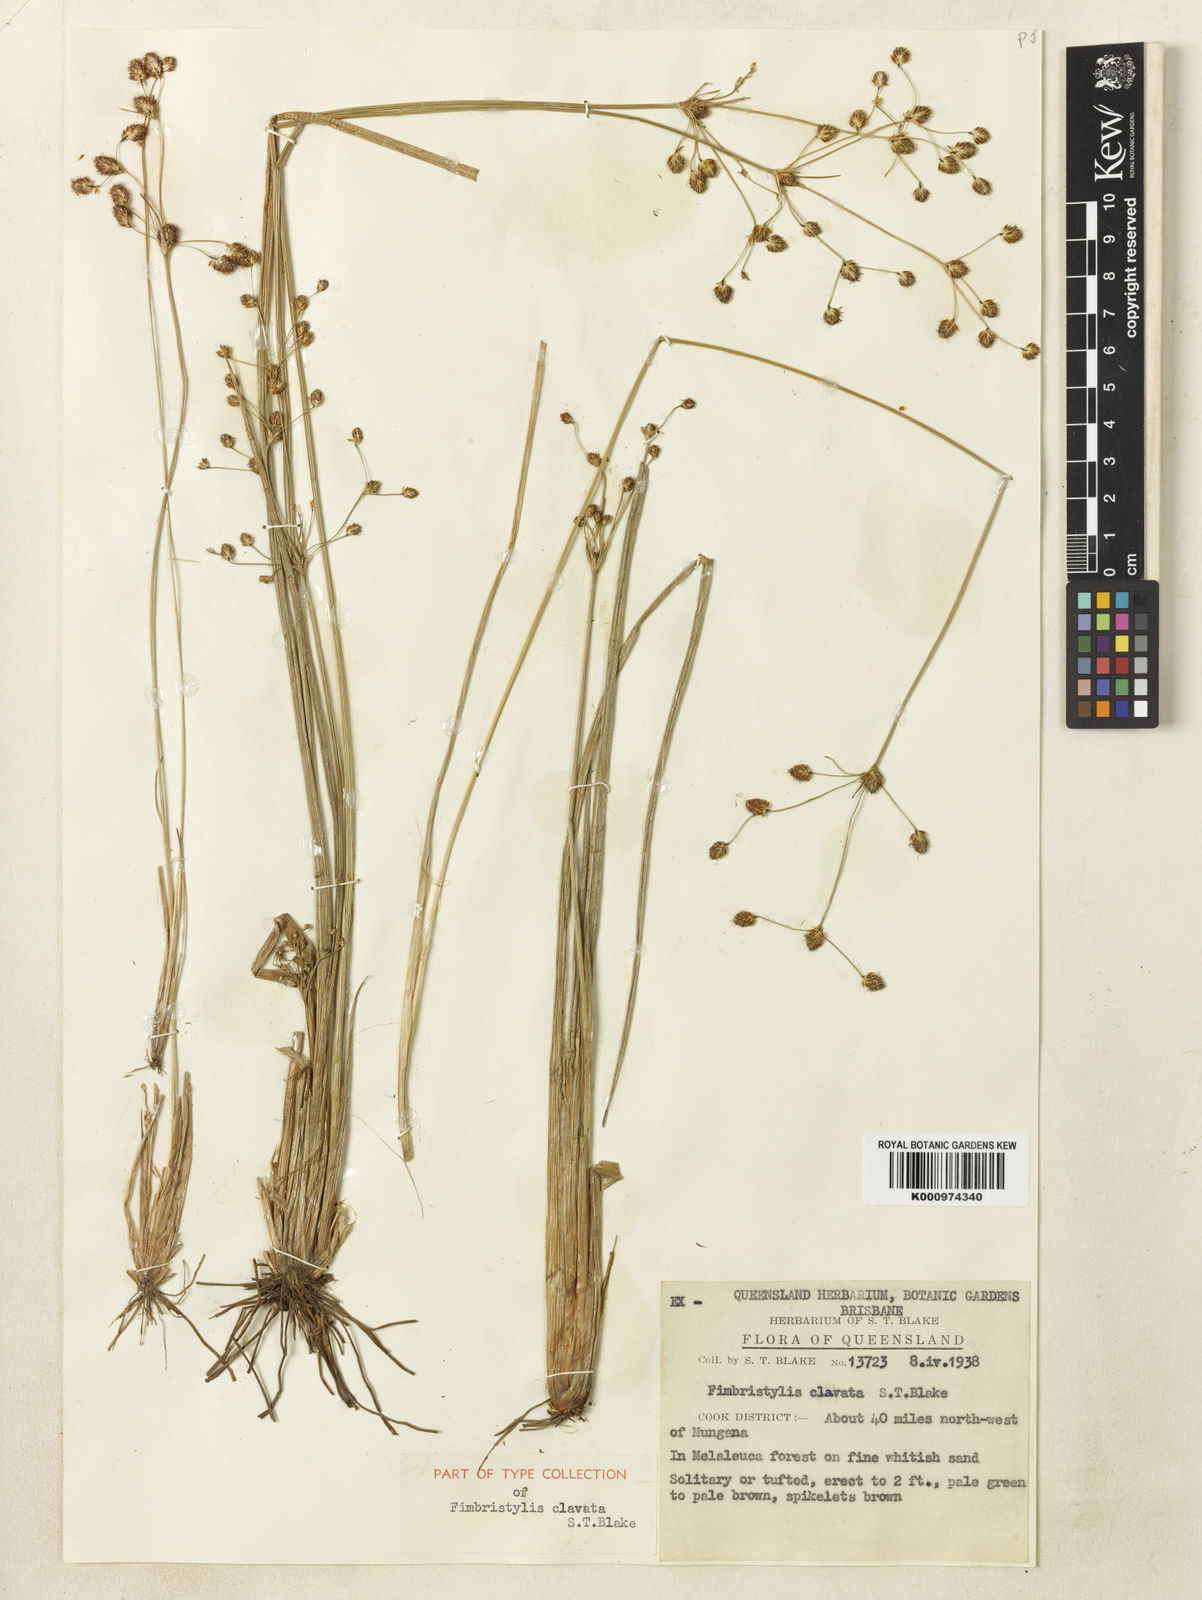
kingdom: Plantae
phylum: Tracheophyta
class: Liliopsida
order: Poales
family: Cyperaceae
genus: Fimbristylis
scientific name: Fimbristylis clavata
